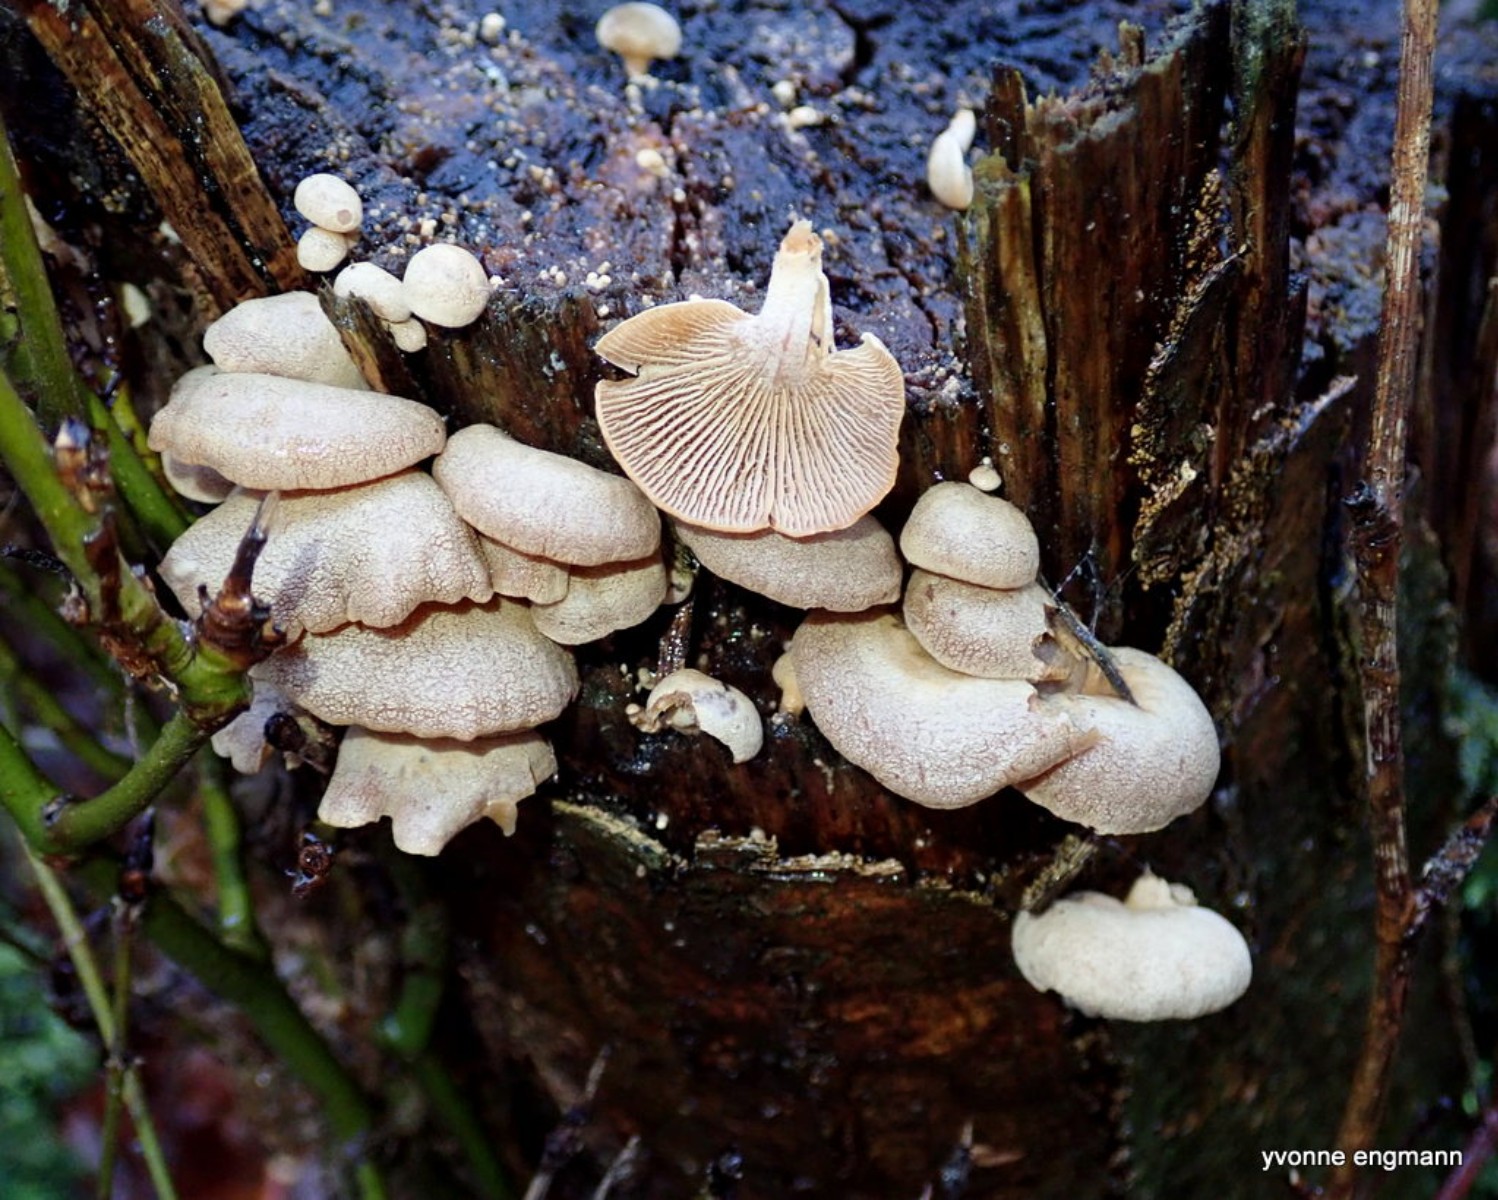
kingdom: Fungi
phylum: Basidiomycota
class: Agaricomycetes
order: Agaricales
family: Mycenaceae
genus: Panellus
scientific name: Panellus stipticus
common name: kliddet epaulethat
